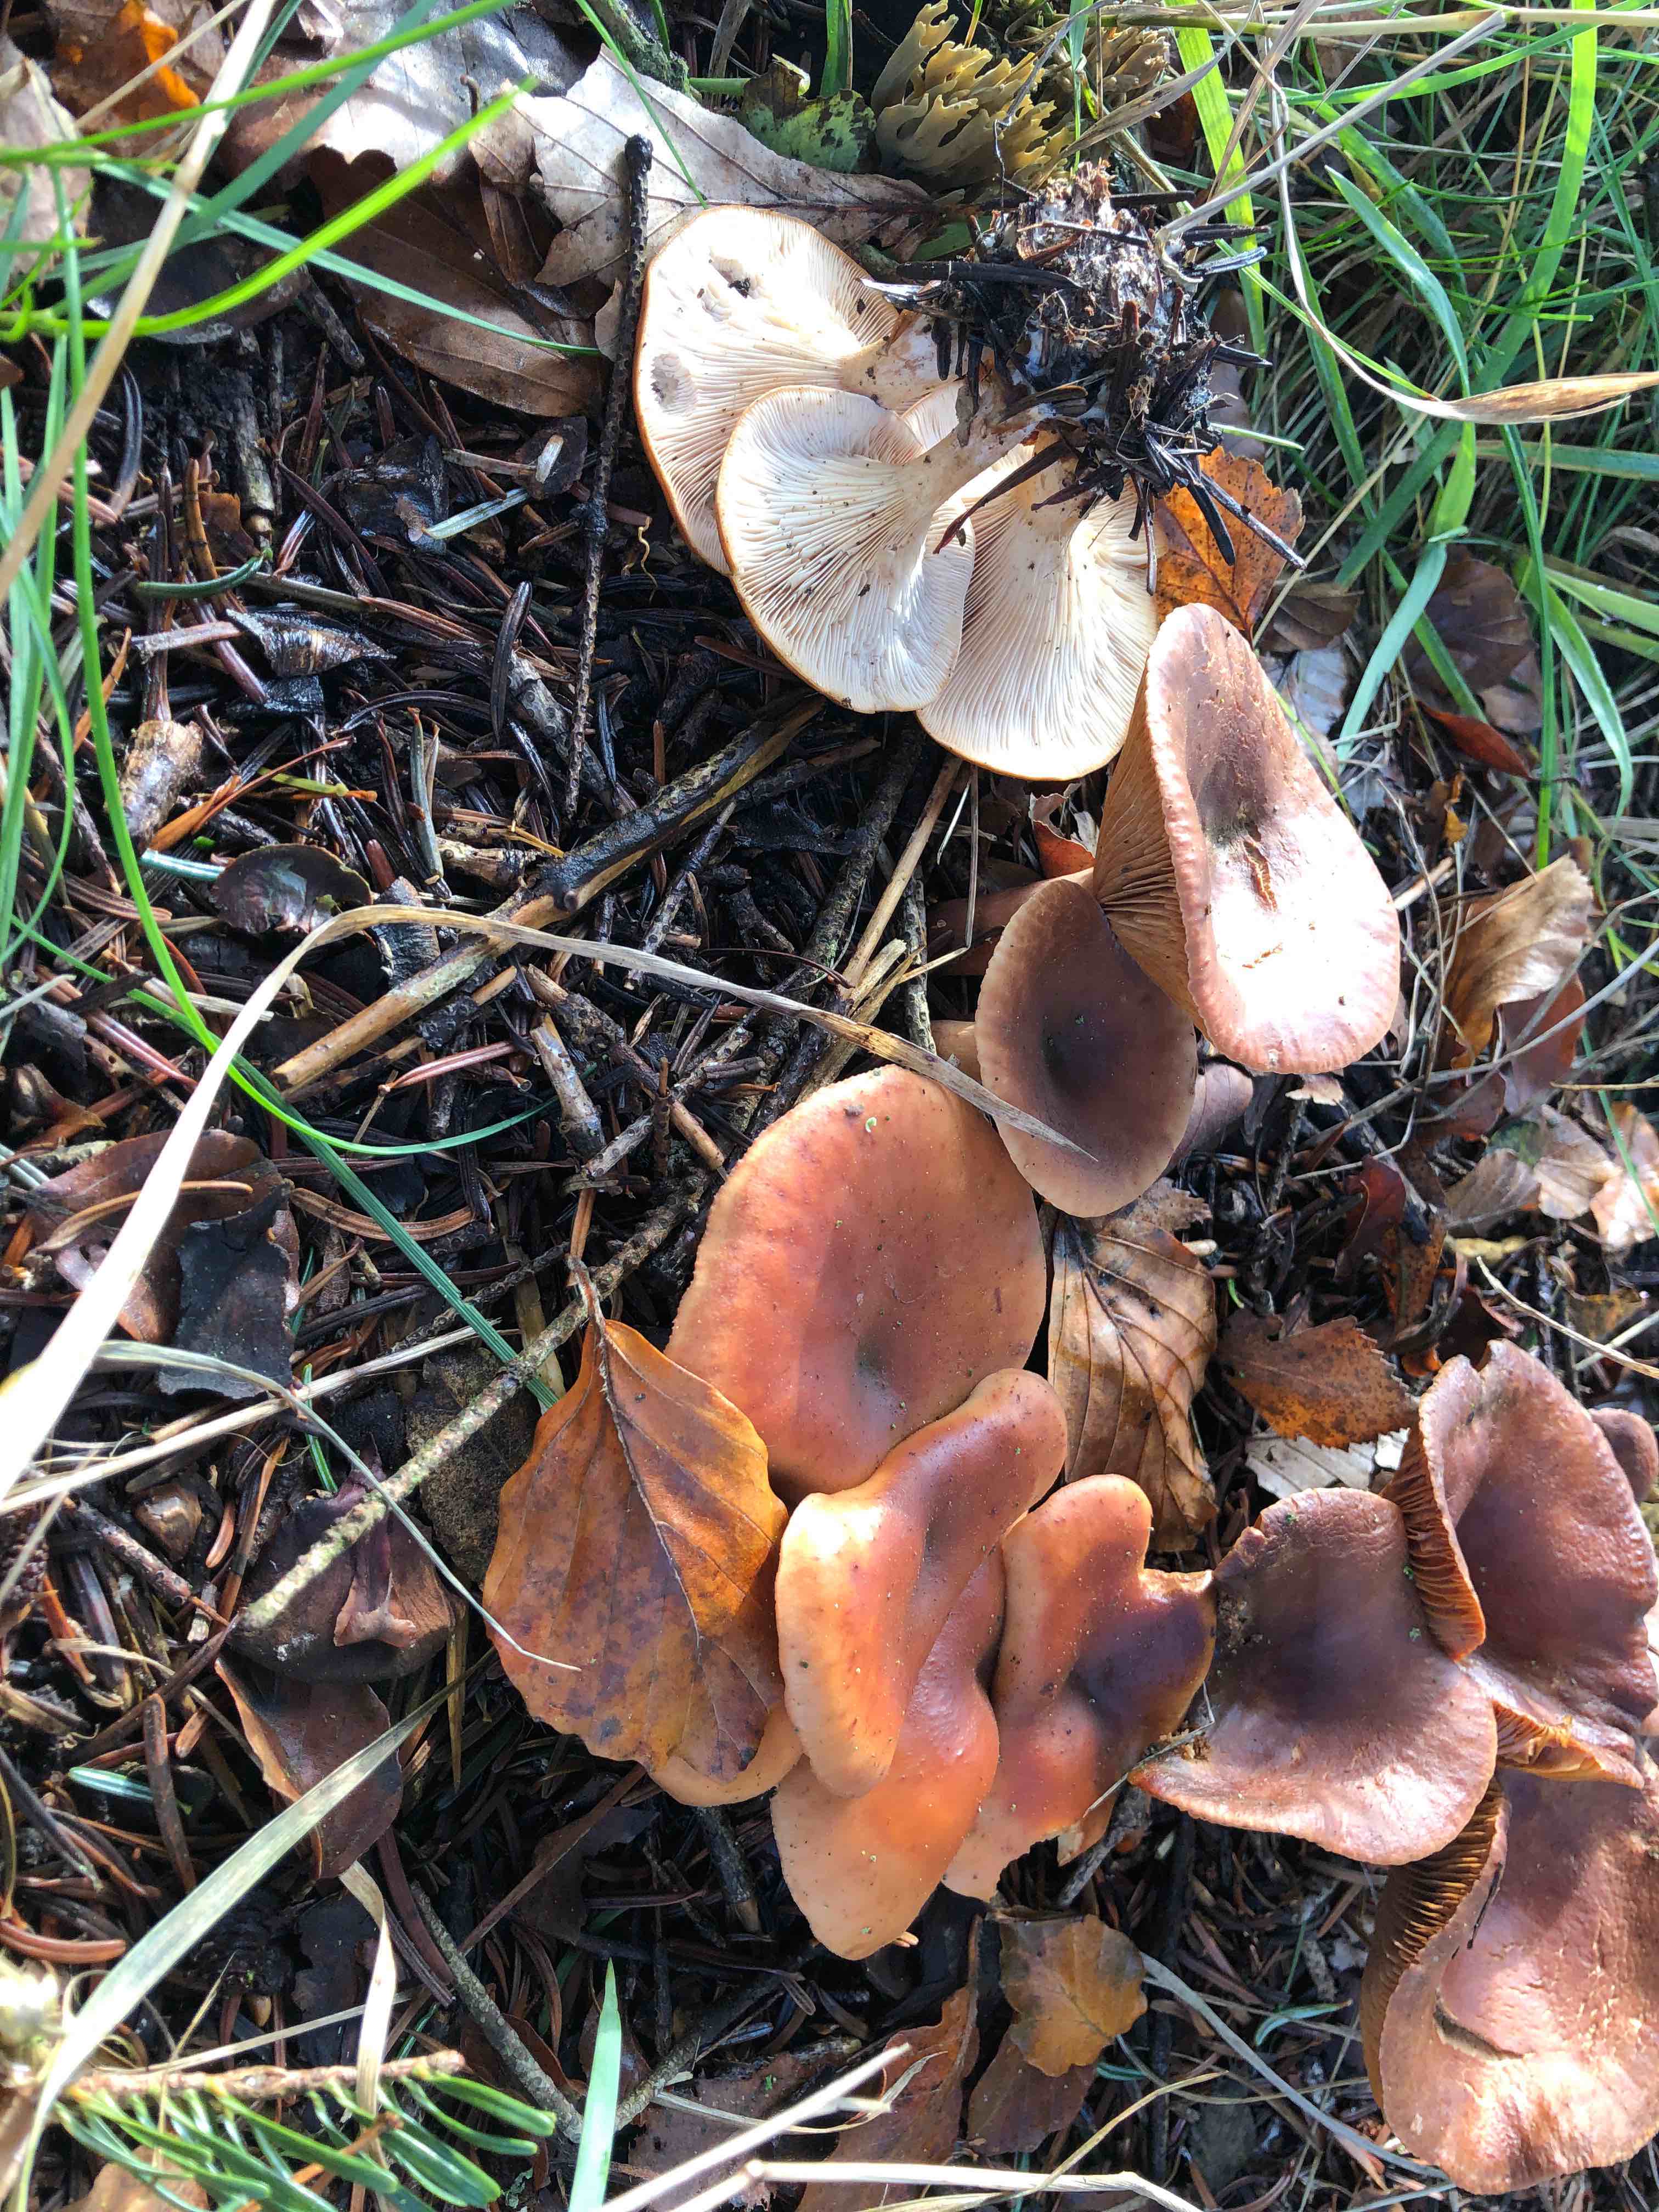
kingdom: Fungi
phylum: Basidiomycota
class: Agaricomycetes
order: Agaricales
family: Tricholomataceae
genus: Paralepista
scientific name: Paralepista flaccida
